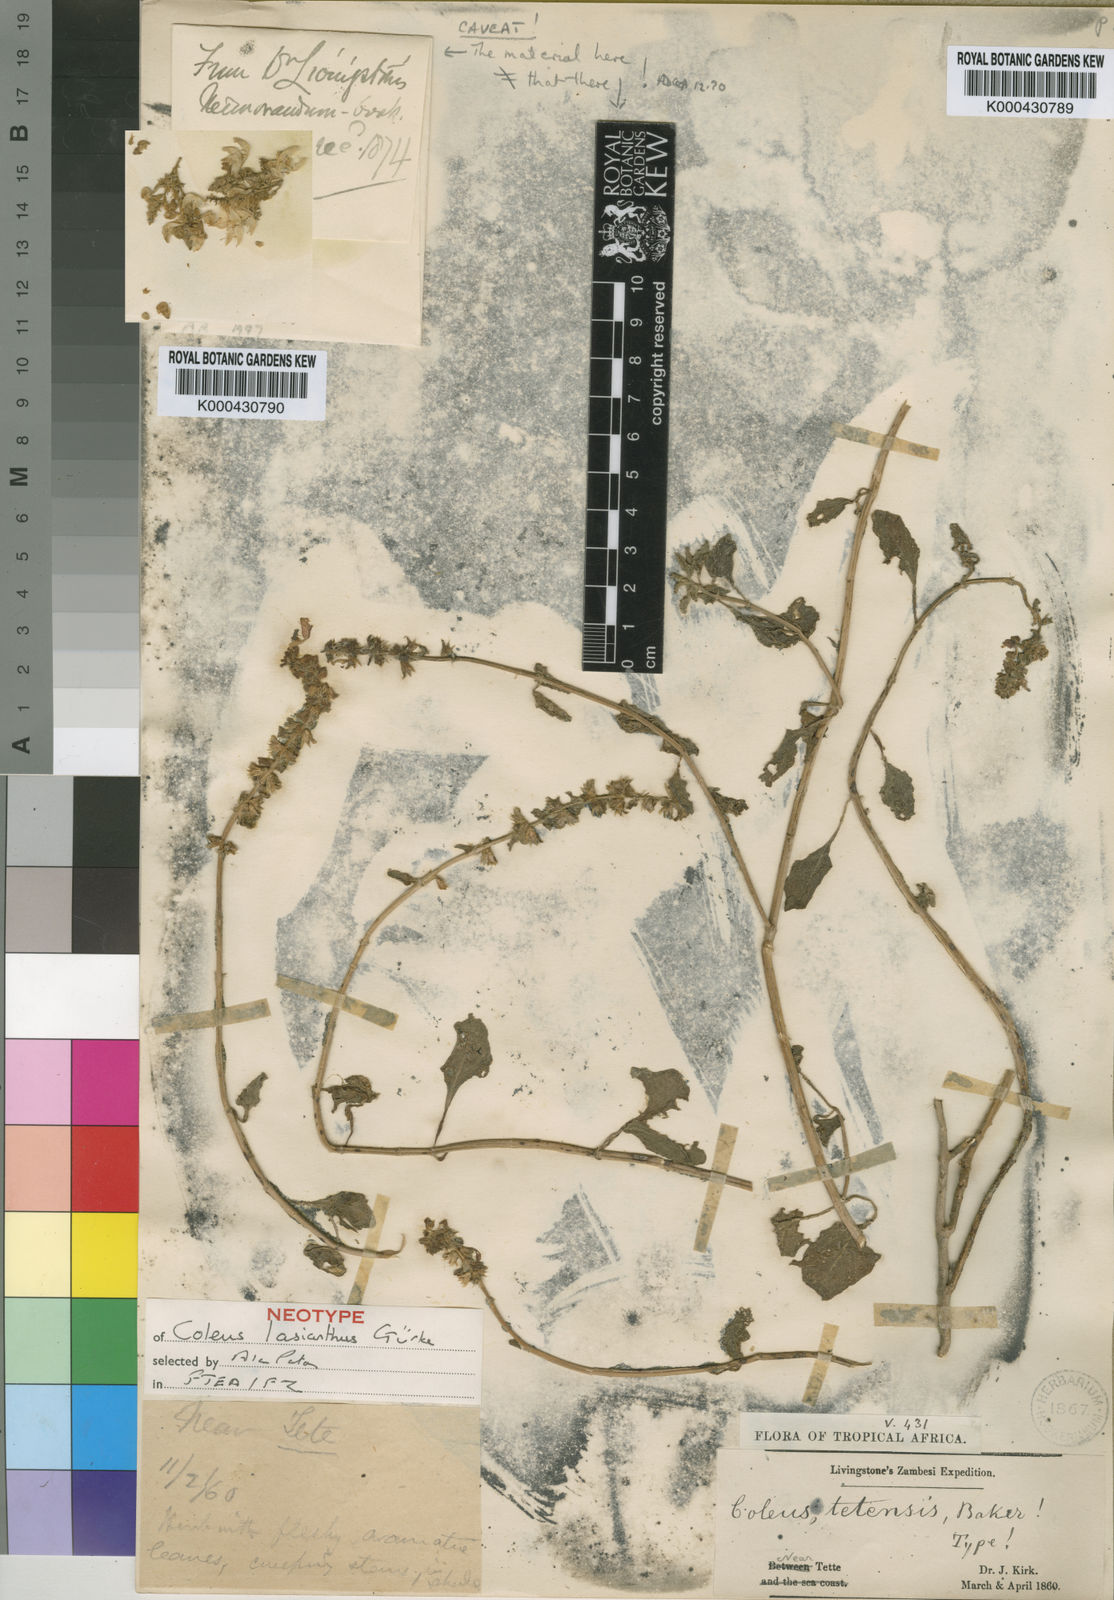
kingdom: Plantae
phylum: Tracheophyta
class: Magnoliopsida
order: Lamiales
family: Lamiaceae
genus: Coleus
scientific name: Coleus lasianthus
